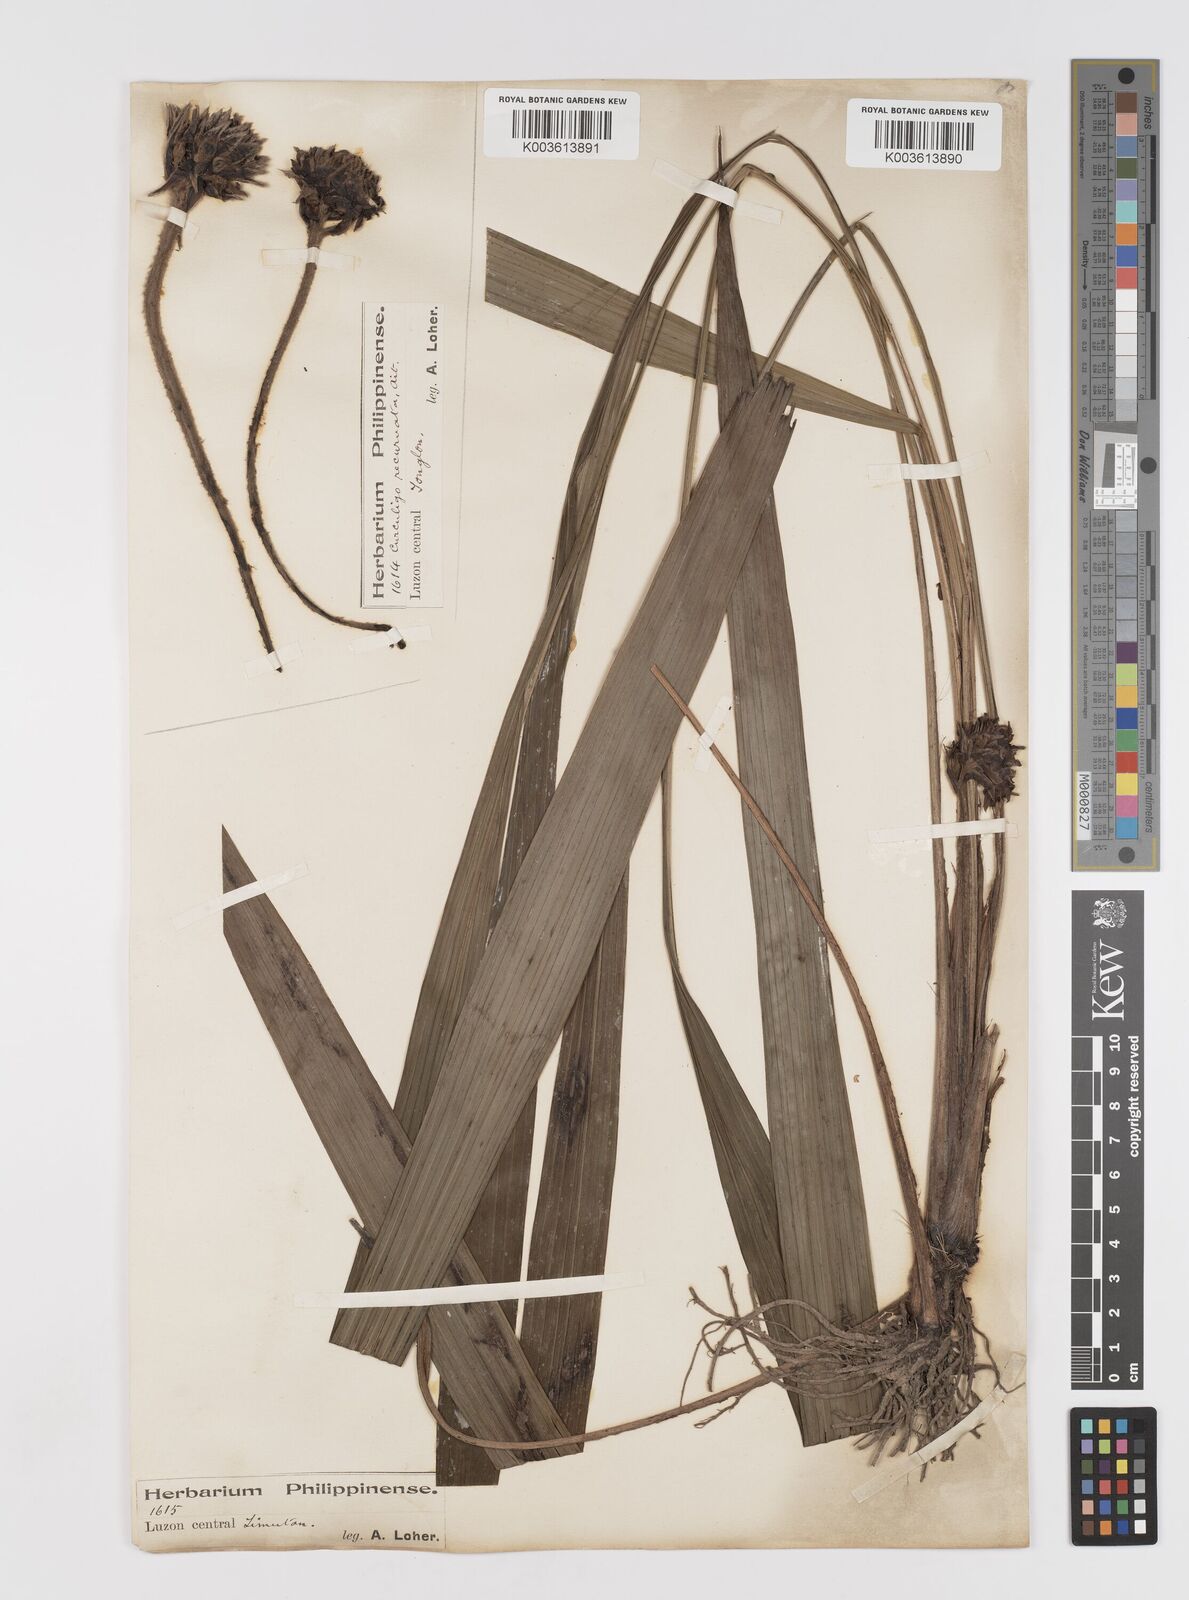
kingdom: Plantae
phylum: Tracheophyta
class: Liliopsida
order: Asparagales
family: Hypoxidaceae
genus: Curculigo
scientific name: Curculigo capitulata
